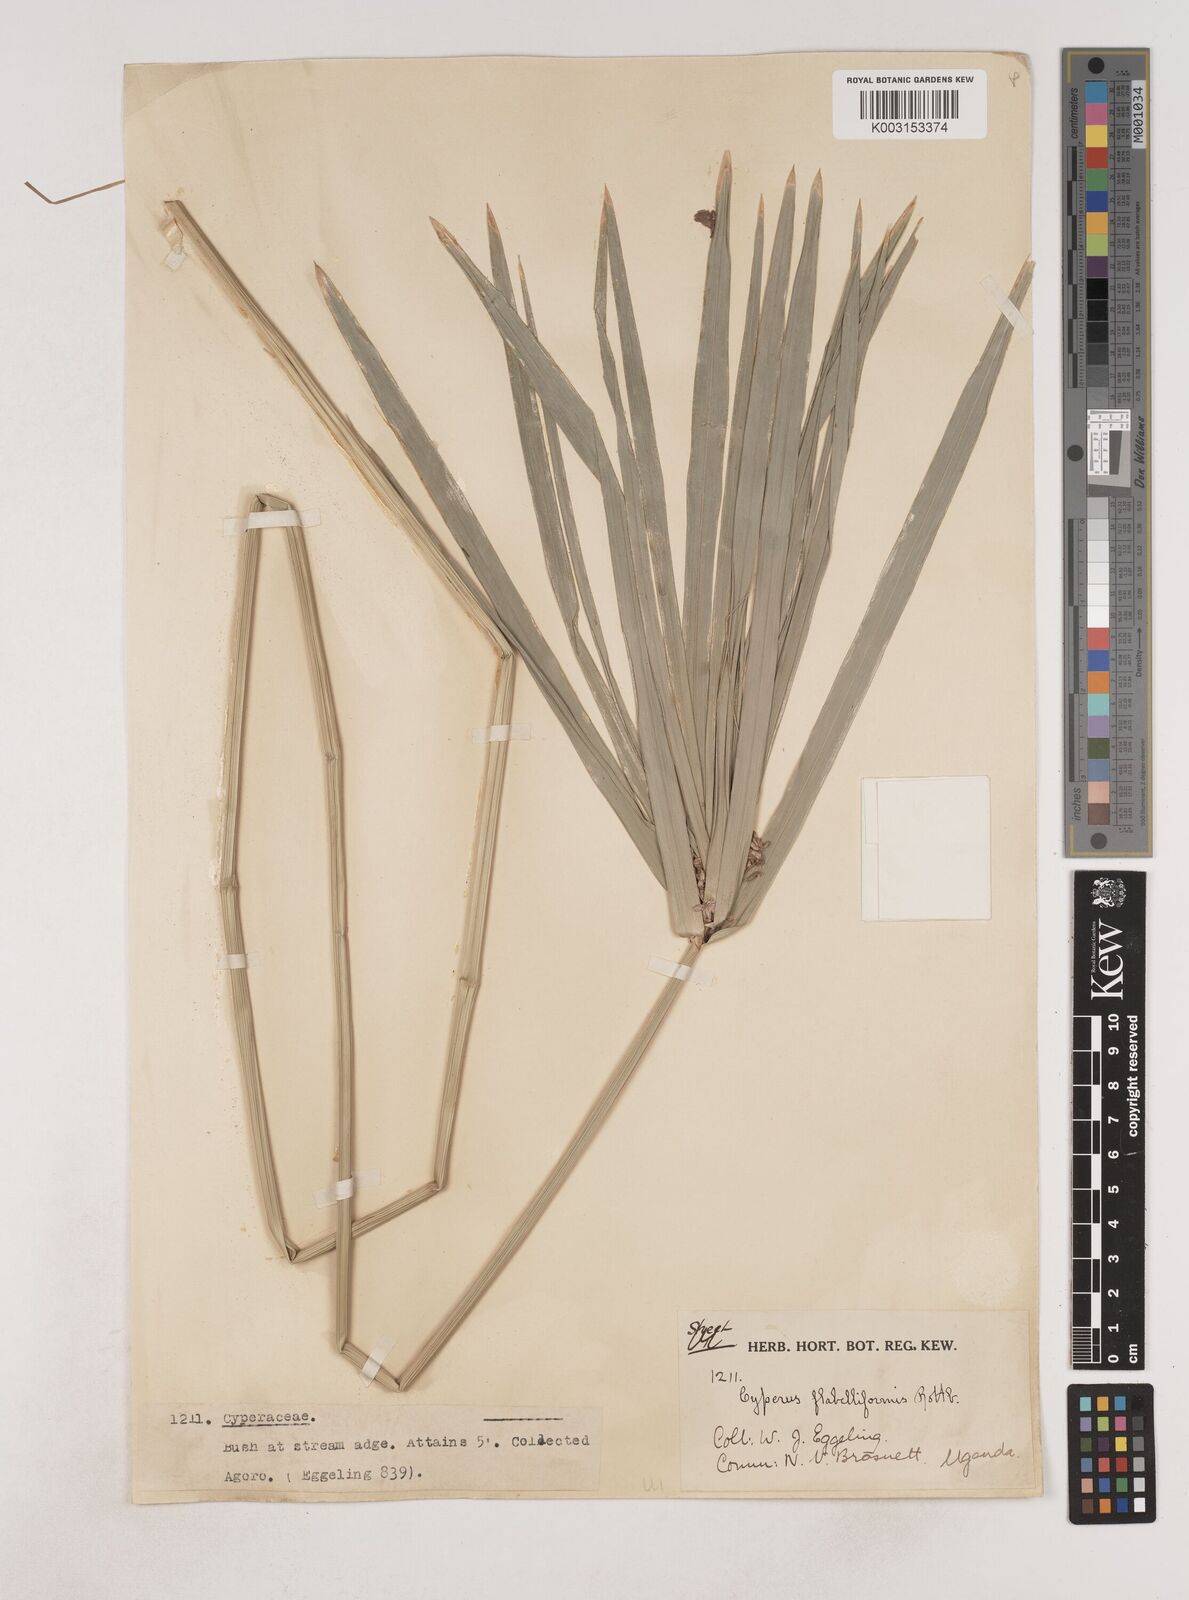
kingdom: Plantae
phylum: Tracheophyta
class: Liliopsida
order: Poales
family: Cyperaceae
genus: Cyperus
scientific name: Cyperus alternifolius
